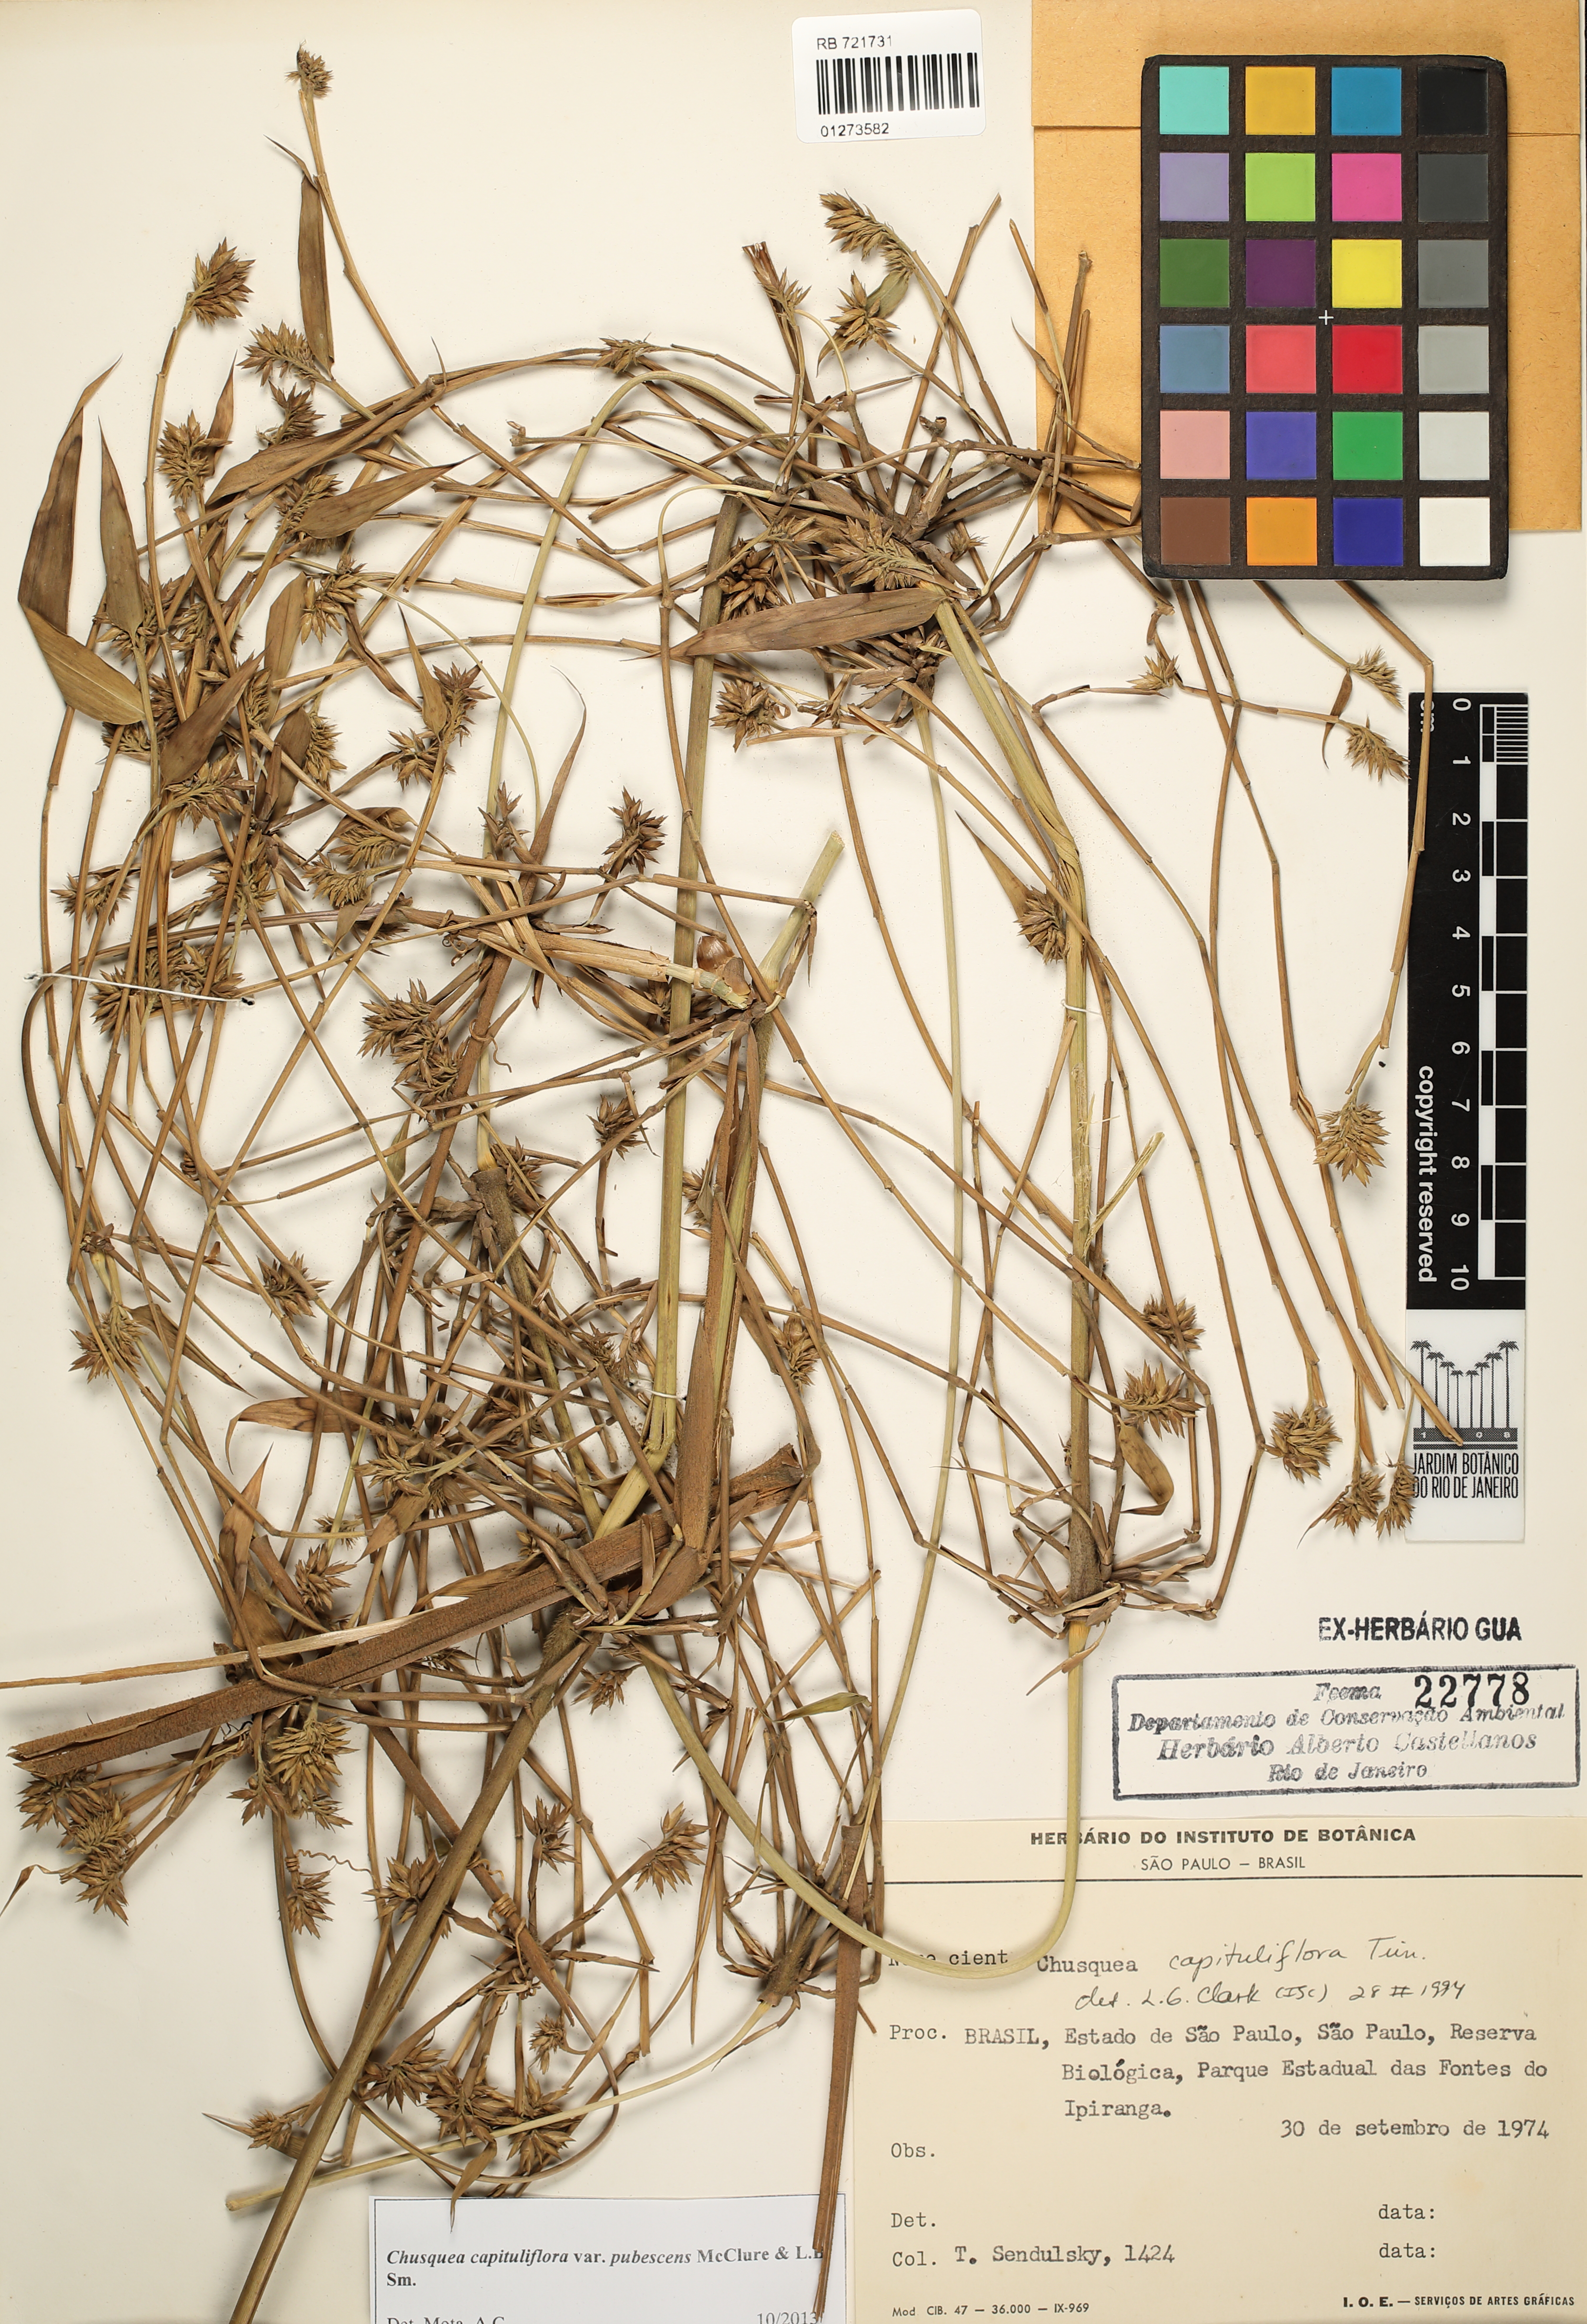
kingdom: Plantae
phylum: Tracheophyta
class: Liliopsida
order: Poales
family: Poaceae
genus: Chusquea
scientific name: Chusquea kleinii
